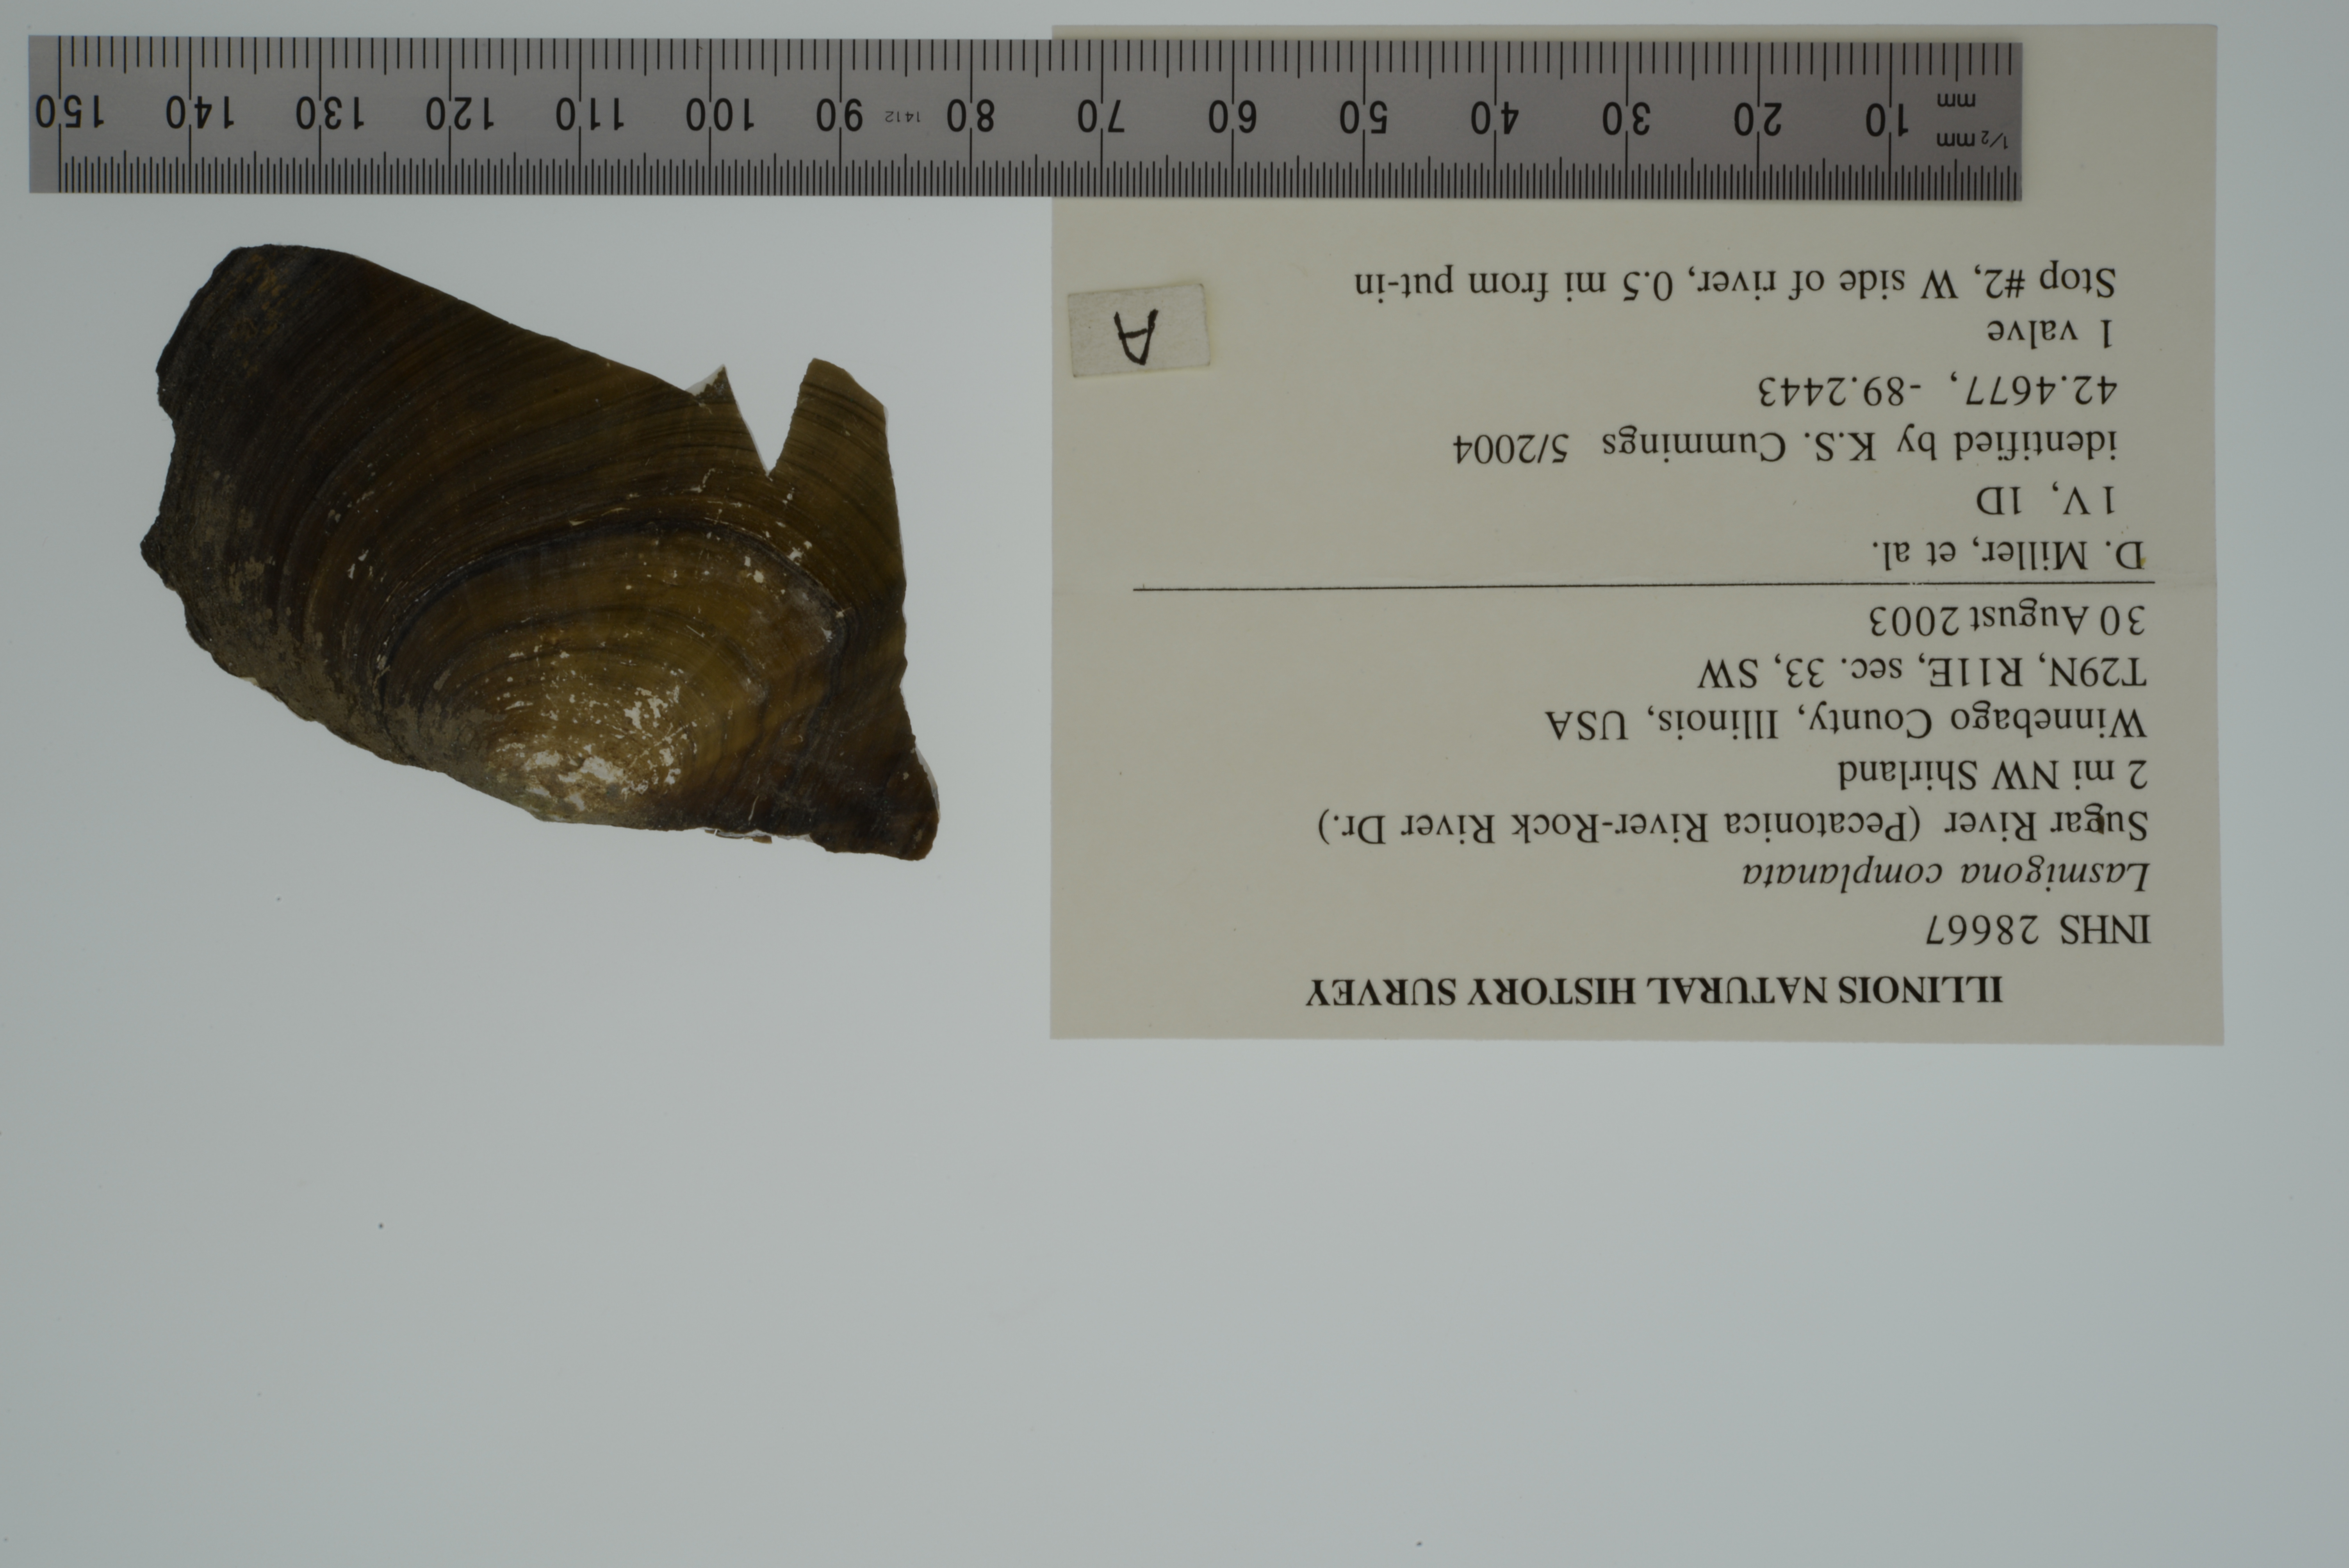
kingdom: Animalia
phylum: Mollusca
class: Bivalvia
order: Unionida
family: Unionidae
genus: Lasmigona
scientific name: Lasmigona complanata
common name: White heelsplitter
